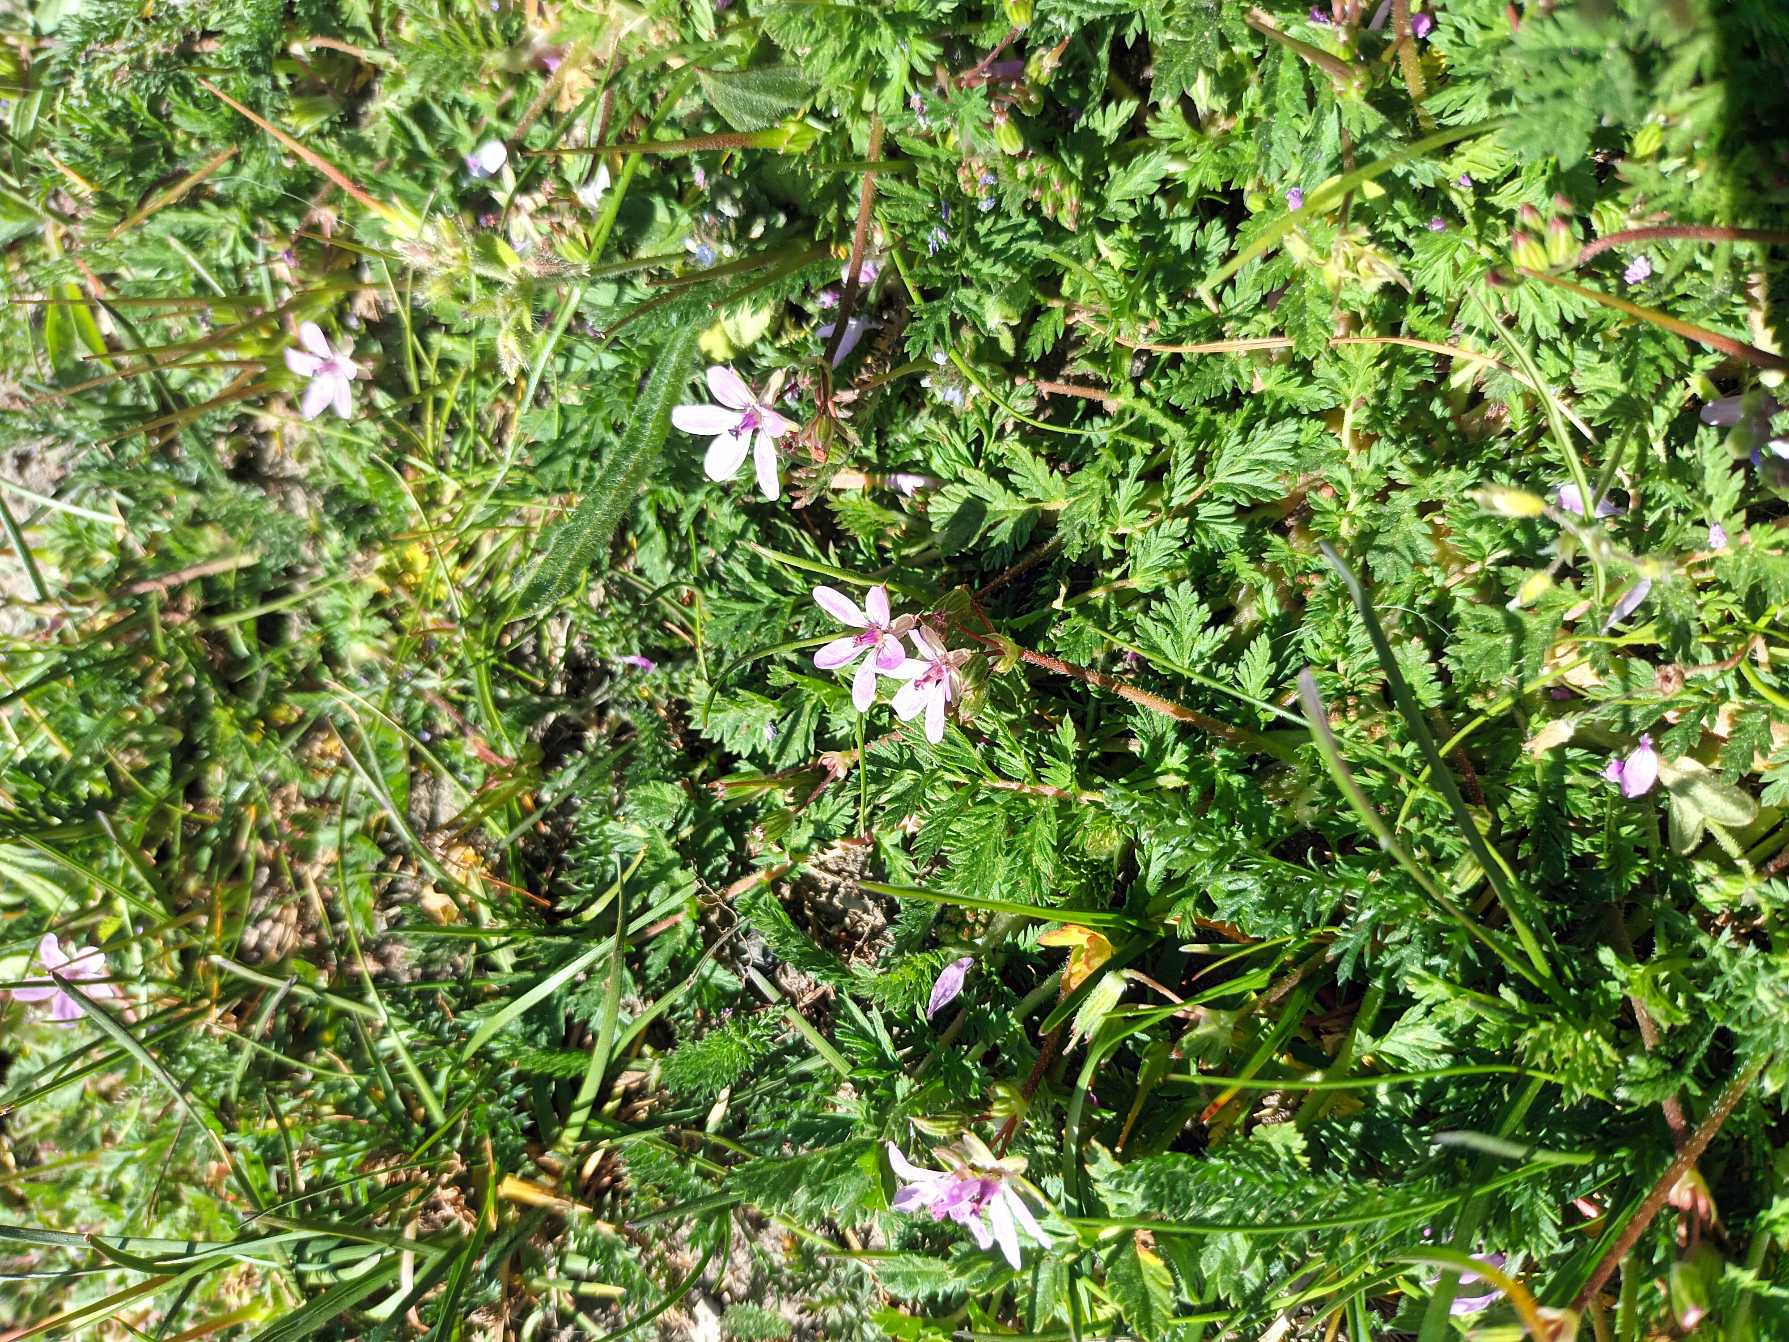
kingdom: Plantae
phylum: Tracheophyta
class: Magnoliopsida
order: Geraniales
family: Geraniaceae
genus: Erodium
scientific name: Erodium cicutarium
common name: Hejrenæb
